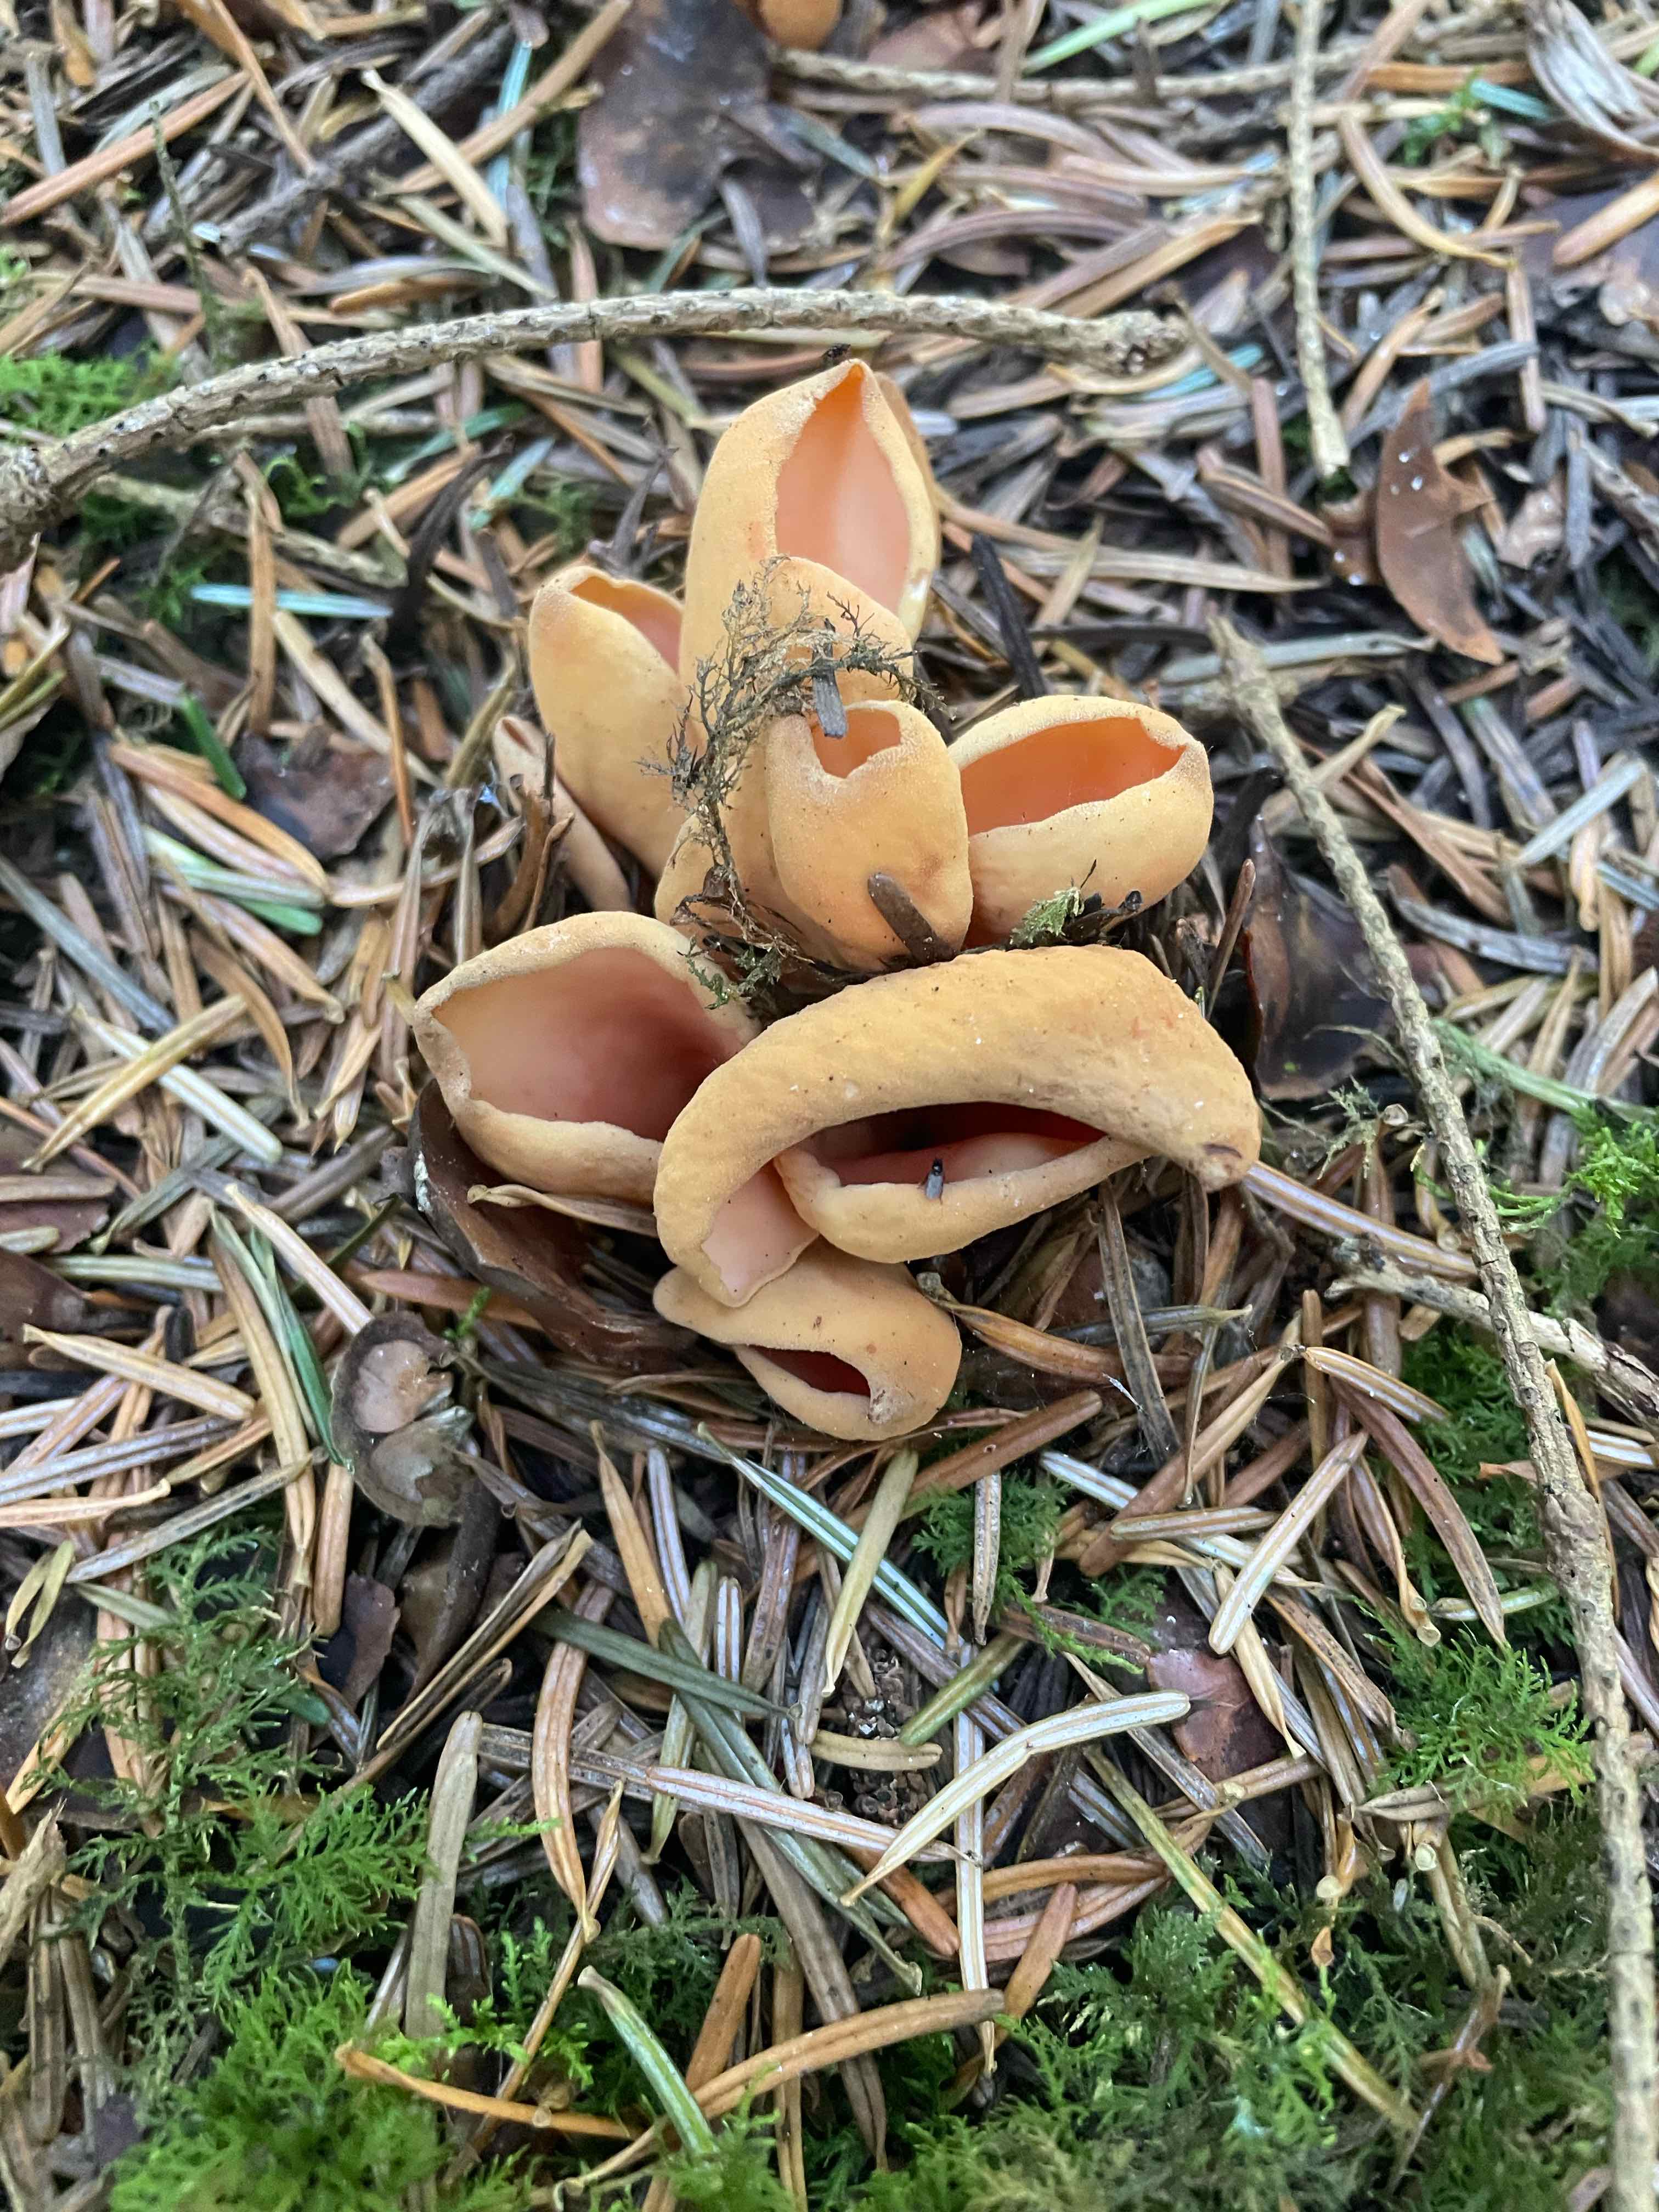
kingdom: Fungi
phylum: Ascomycota
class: Pezizomycetes
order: Pezizales
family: Otideaceae
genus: Otidea
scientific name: Otidea onotica
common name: æsel-ørebæger
